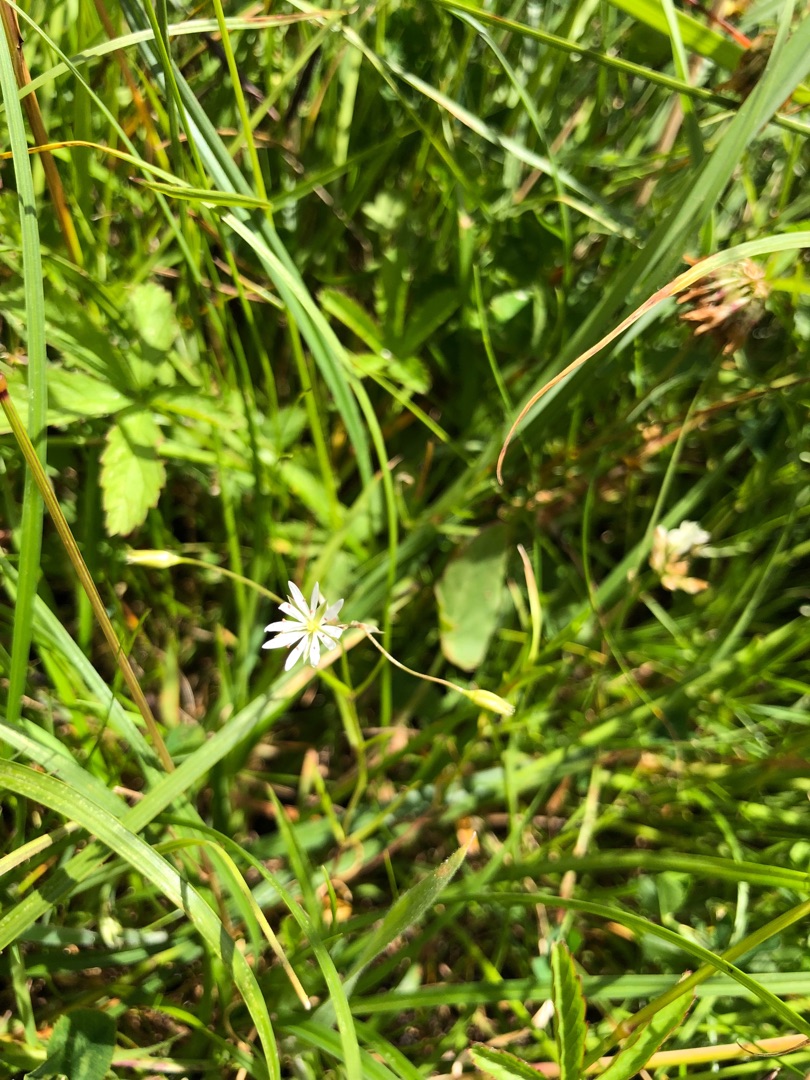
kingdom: Plantae
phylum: Tracheophyta
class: Magnoliopsida
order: Caryophyllales
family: Caryophyllaceae
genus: Stellaria
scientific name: Stellaria graminea
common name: Græsbladet fladstjerne
